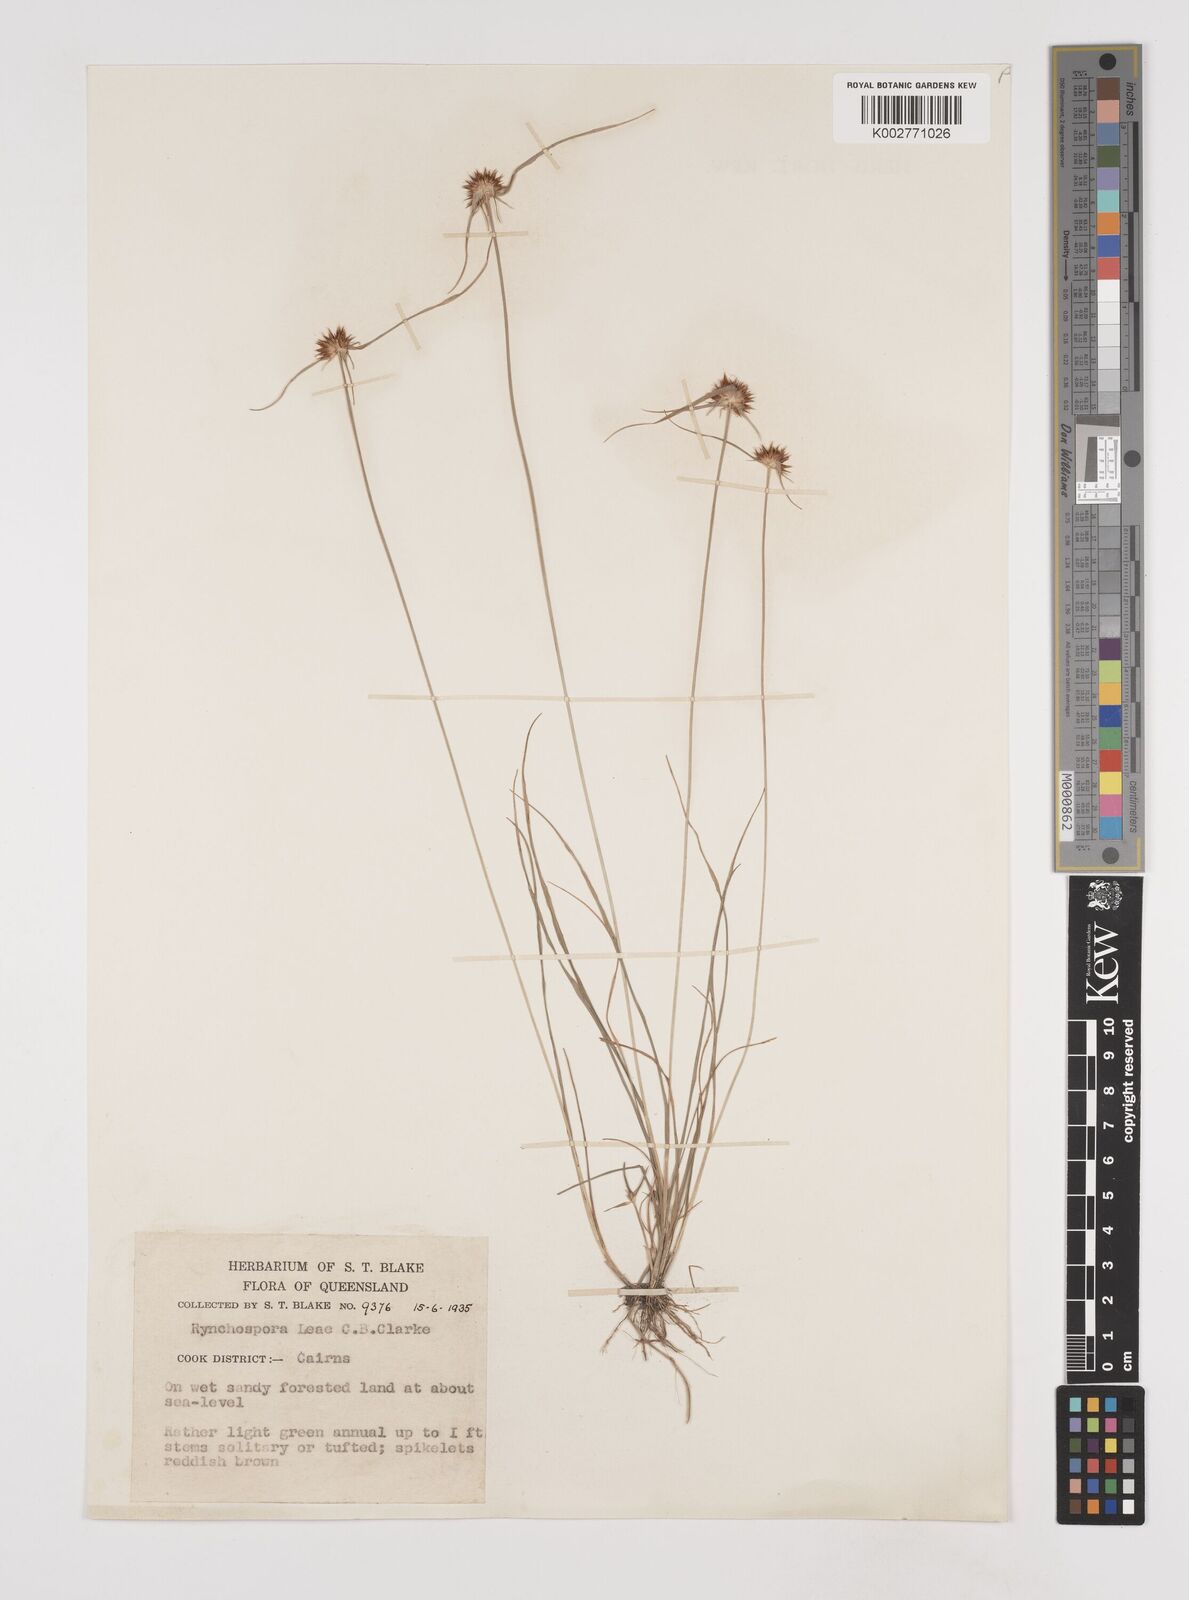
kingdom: Plantae
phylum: Tracheophyta
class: Liliopsida
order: Poales
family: Cyperaceae
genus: Rhynchospora
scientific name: Rhynchospora leae
